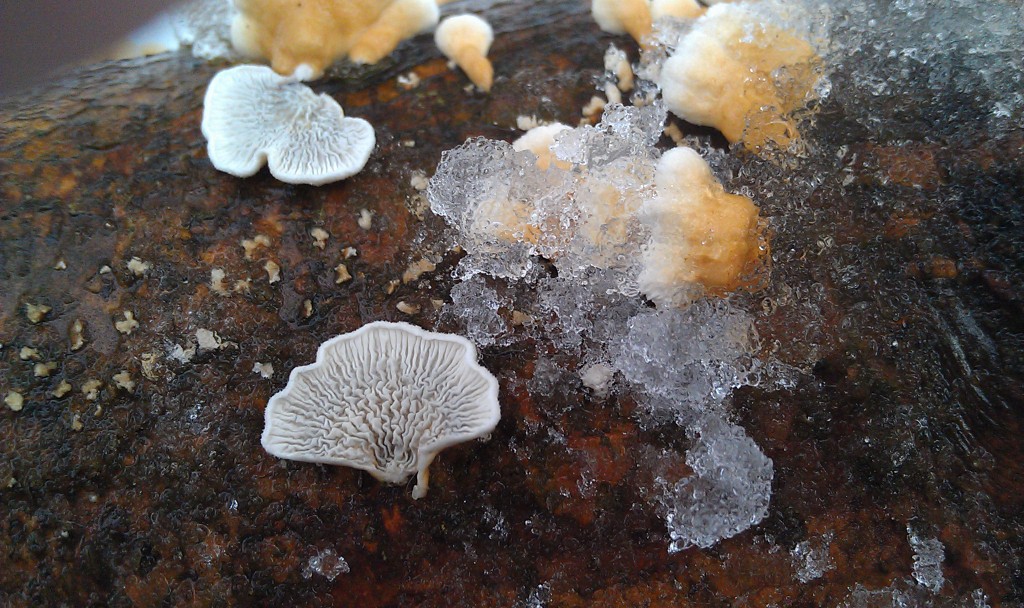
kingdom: Fungi
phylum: Basidiomycota
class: Agaricomycetes
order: Amylocorticiales
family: Amylocorticiaceae
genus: Plicaturopsis
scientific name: Plicaturopsis crispa
